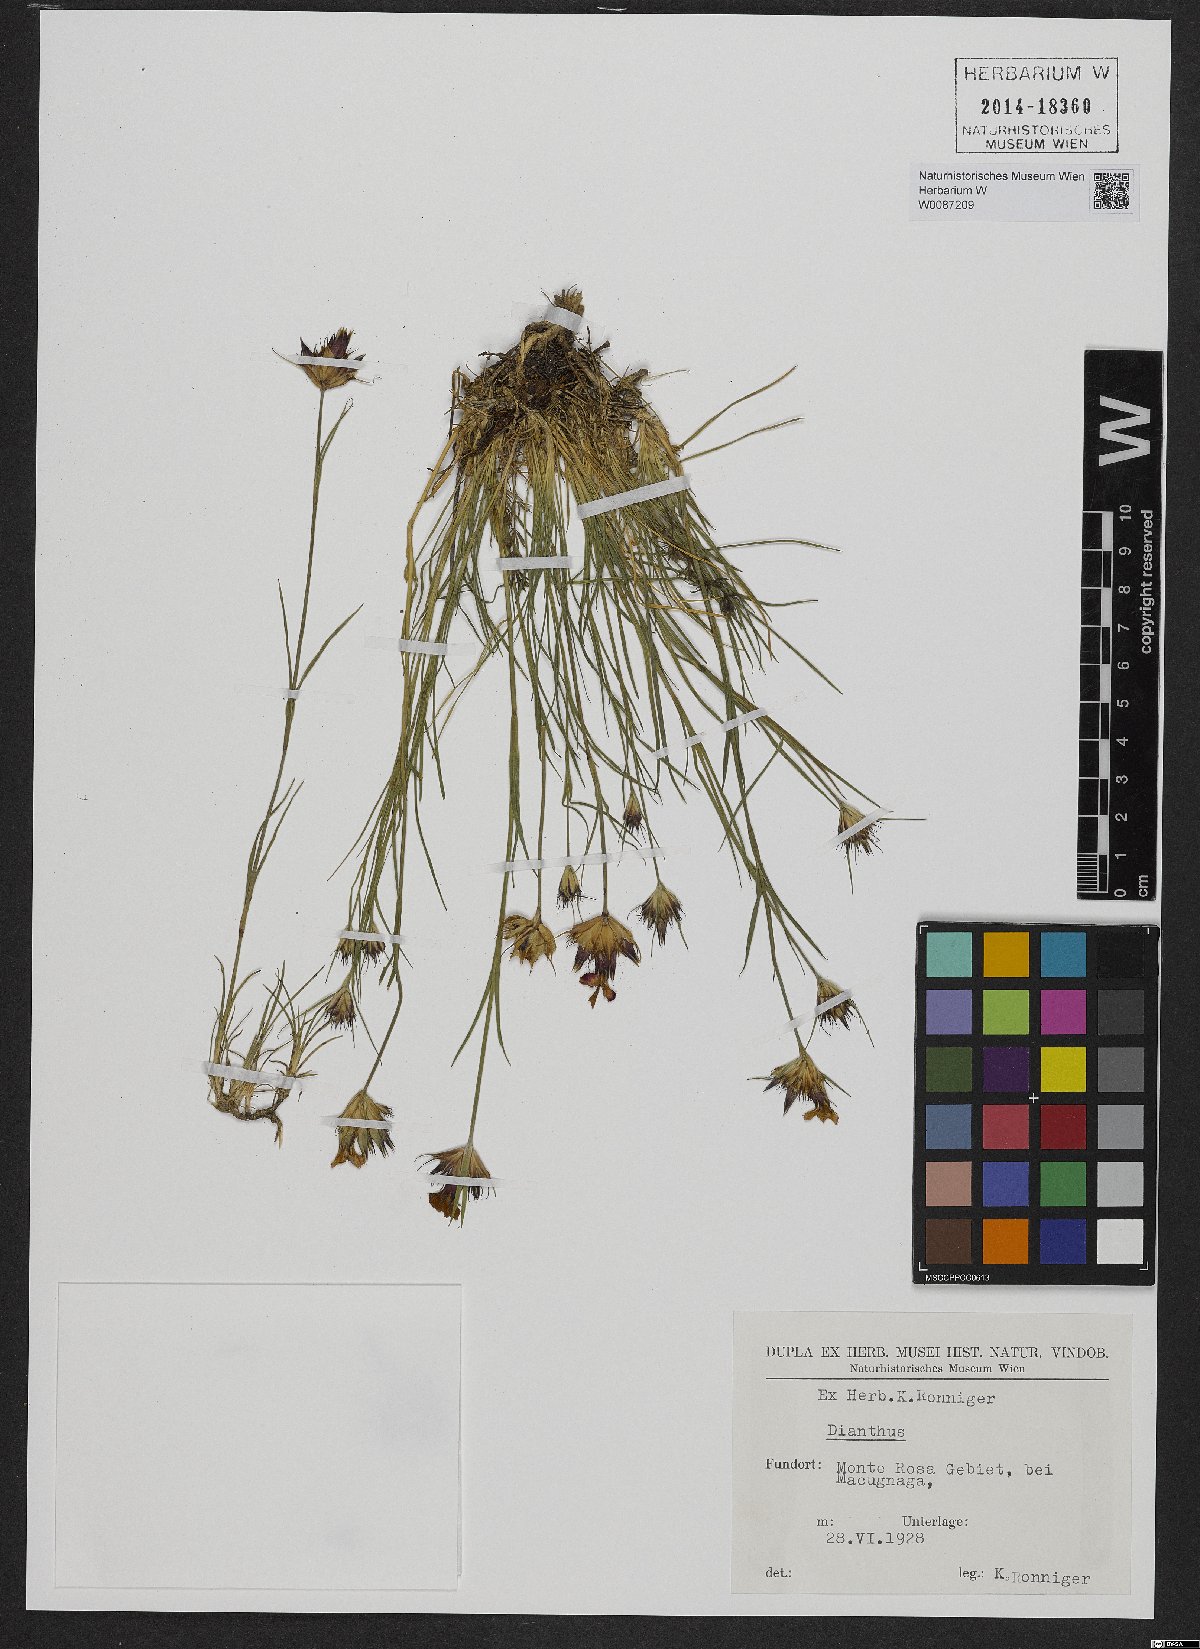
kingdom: Plantae
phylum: Tracheophyta
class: Magnoliopsida
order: Caryophyllales
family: Caryophyllaceae
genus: Dianthus
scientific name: Dianthus
